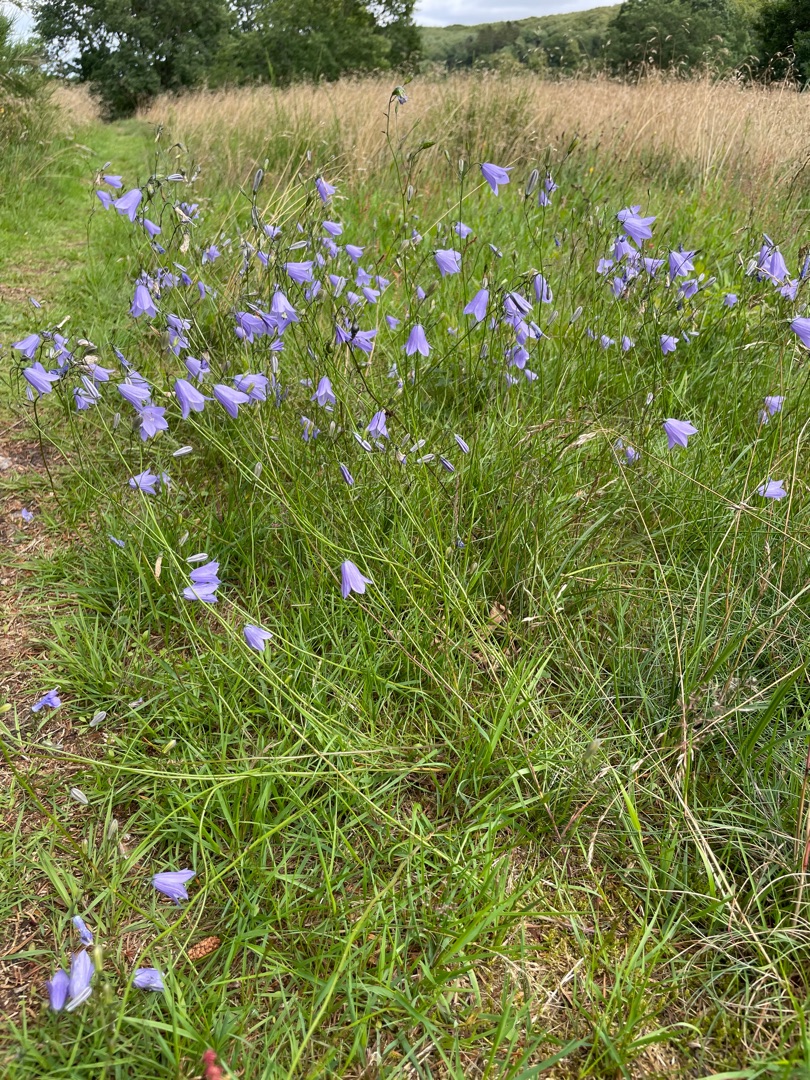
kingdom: Plantae
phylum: Tracheophyta
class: Magnoliopsida
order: Asterales
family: Campanulaceae
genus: Campanula
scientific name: Campanula rotundifolia
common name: Liden klokke
